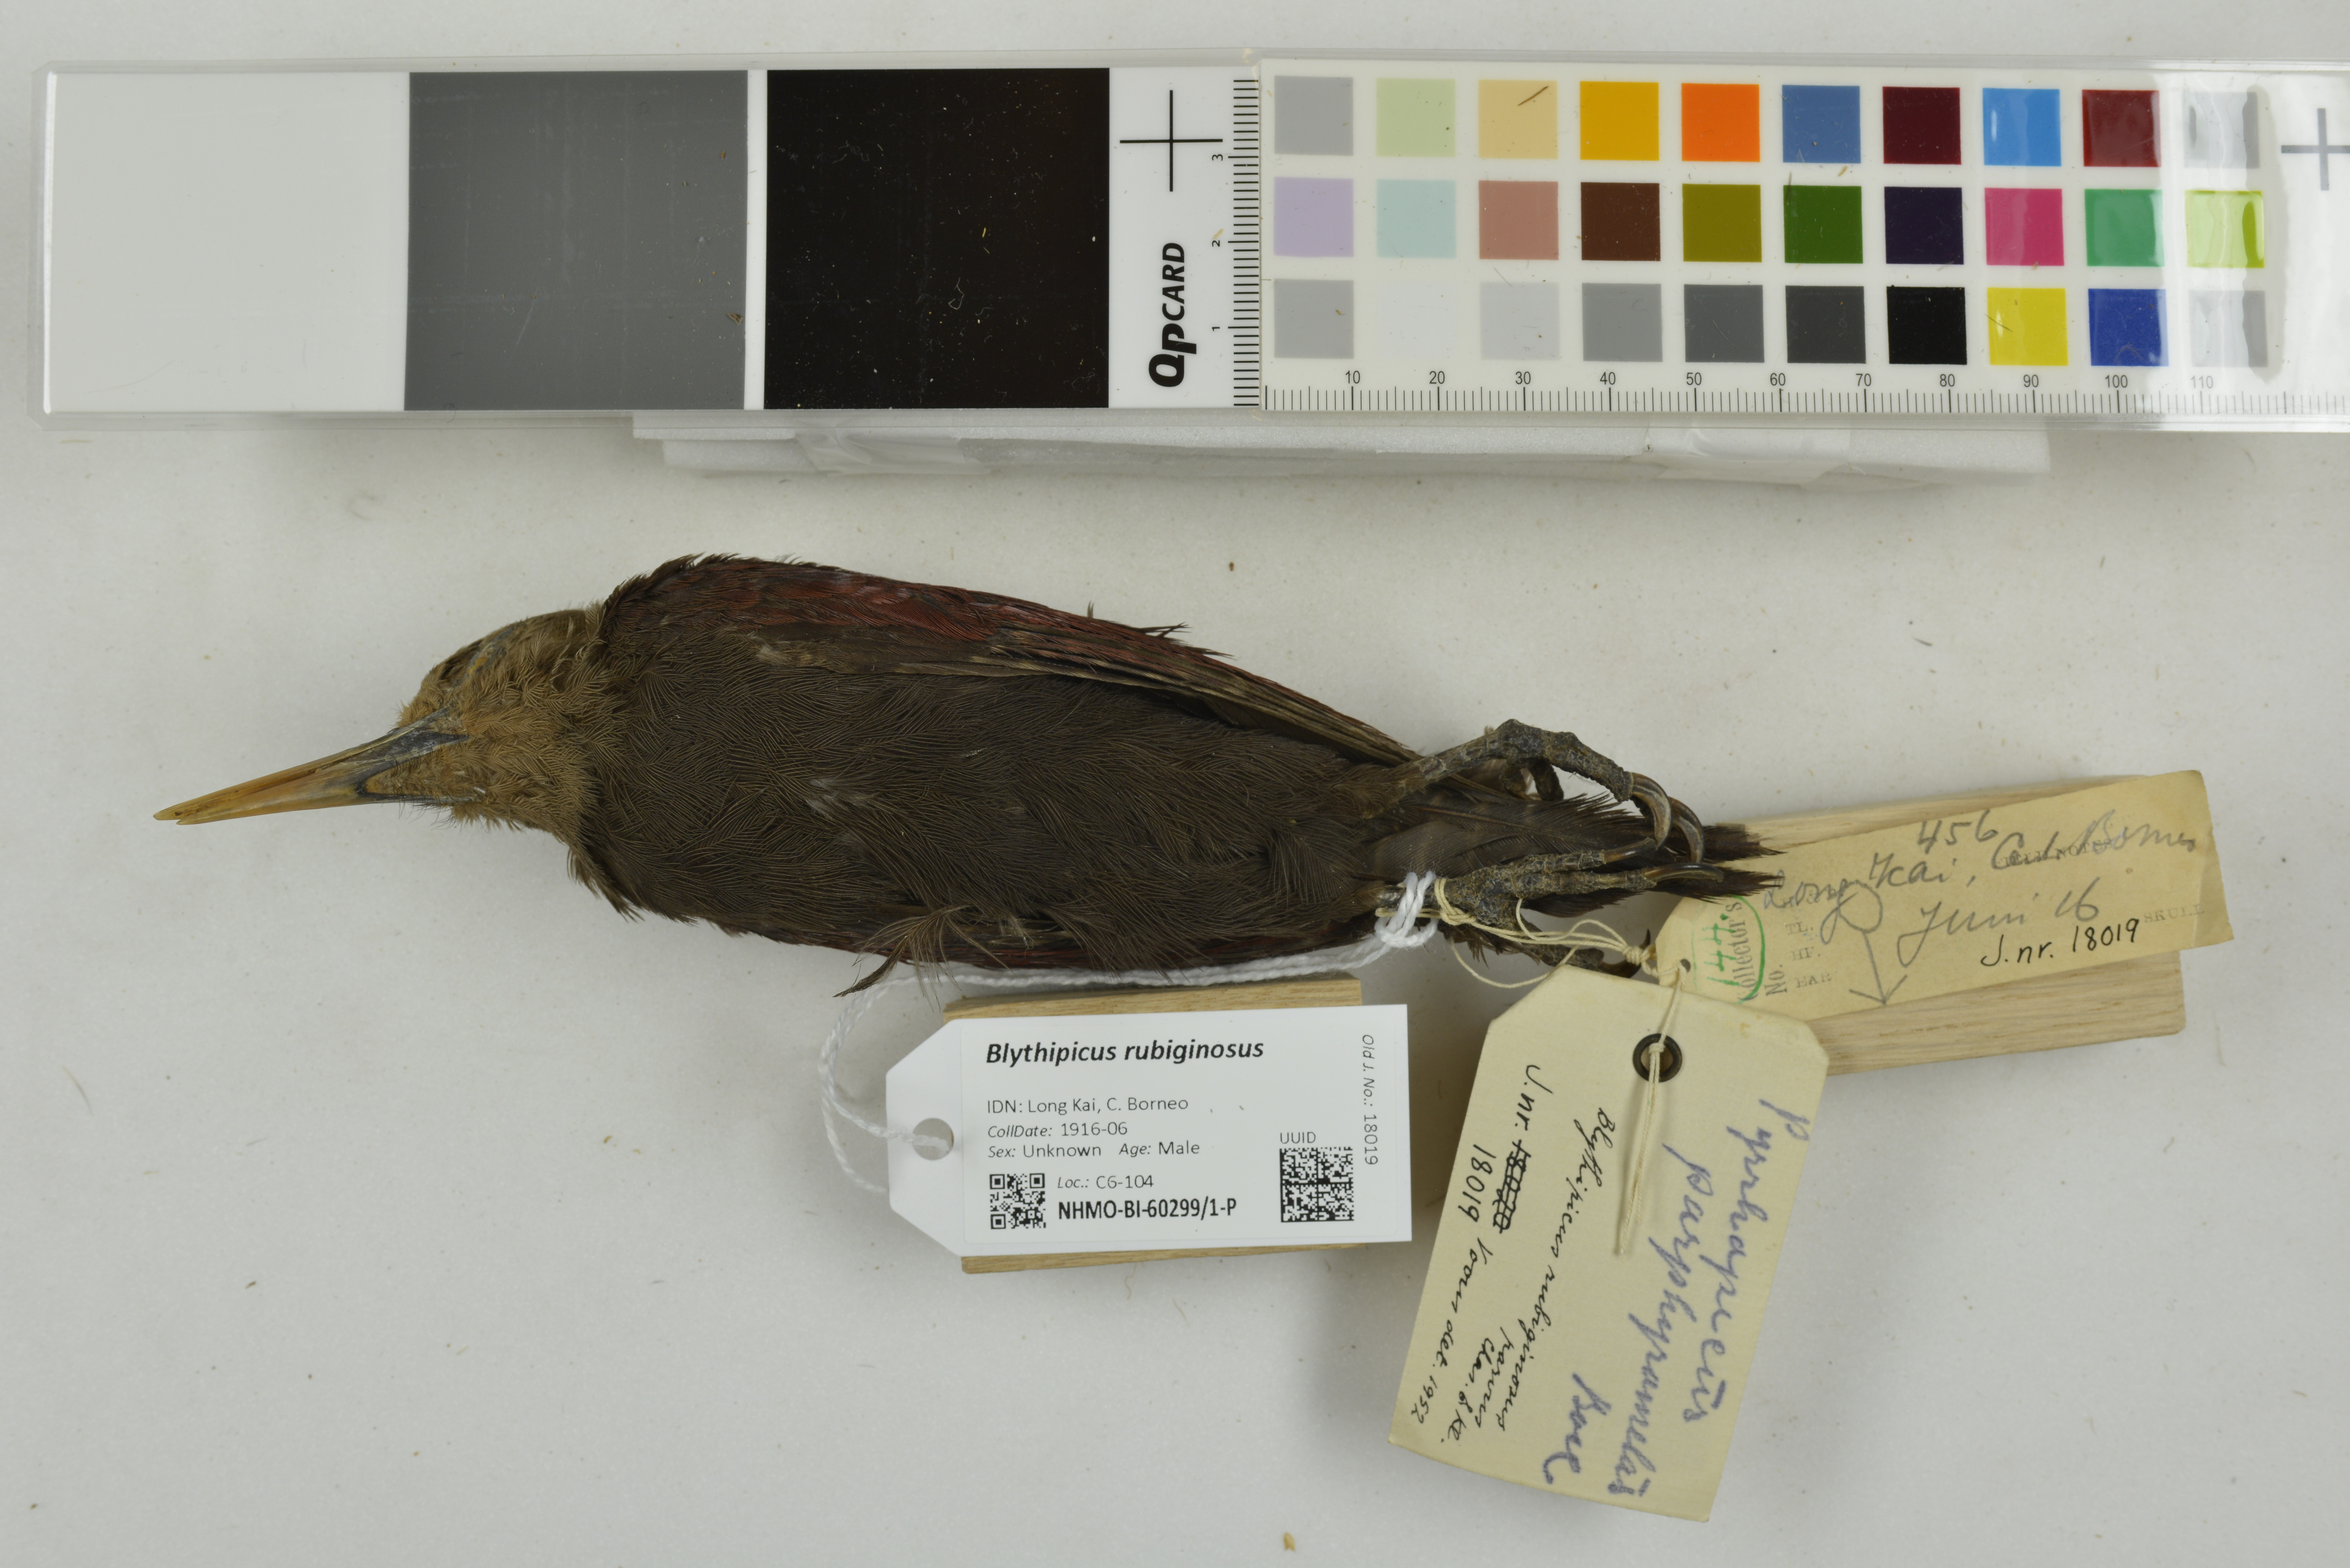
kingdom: Animalia
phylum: Chordata
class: Aves
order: Piciformes
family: Picidae
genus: Blythipicus
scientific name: Blythipicus rubiginosus
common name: Maroon woodpecker
